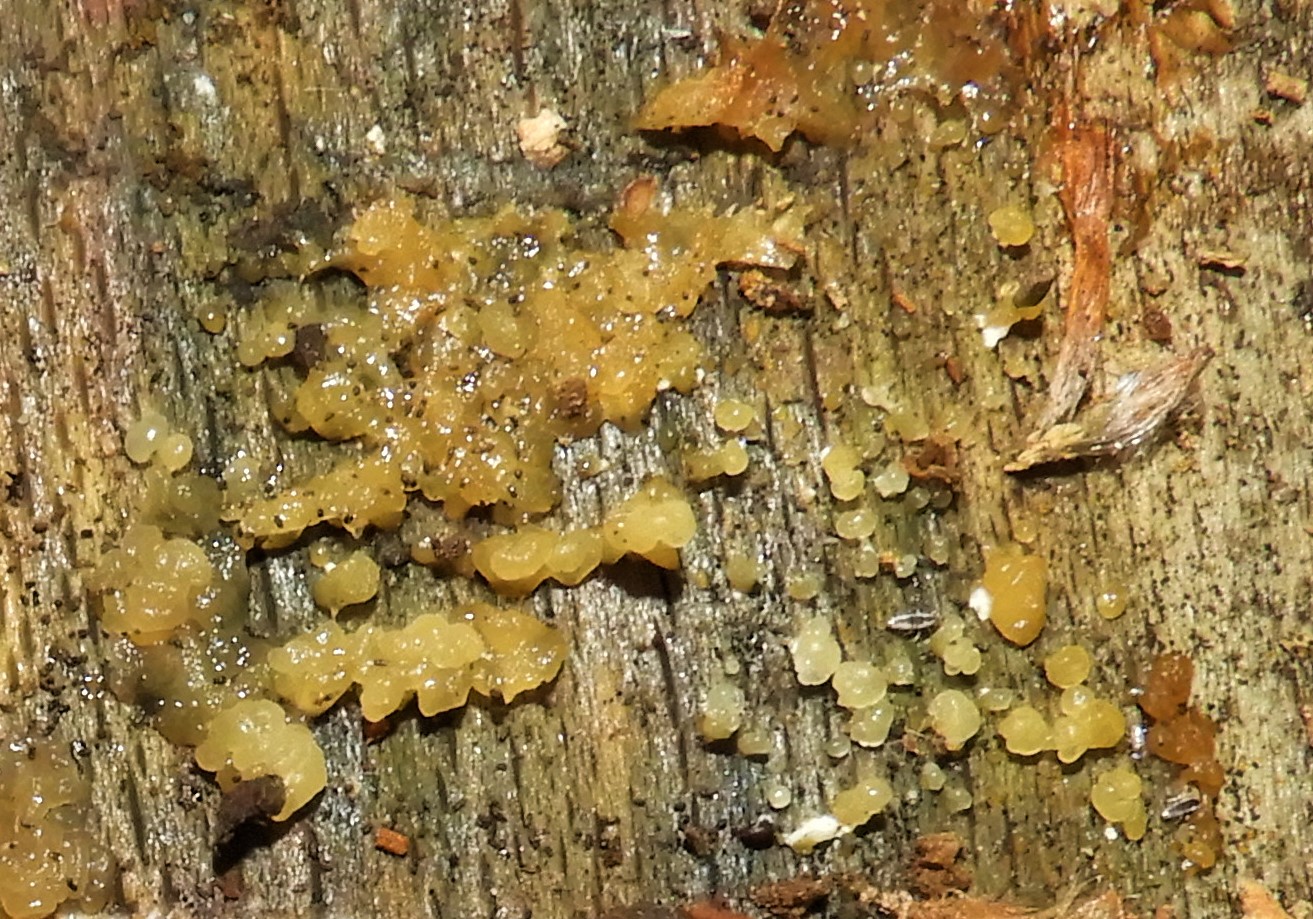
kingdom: Fungi
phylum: Basidiomycota
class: Dacrymycetes
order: Dacrymycetales
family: Dacrymycetaceae
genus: Dacrymyces
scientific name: Dacrymyces stillatus
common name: almindelig tåresvamp
